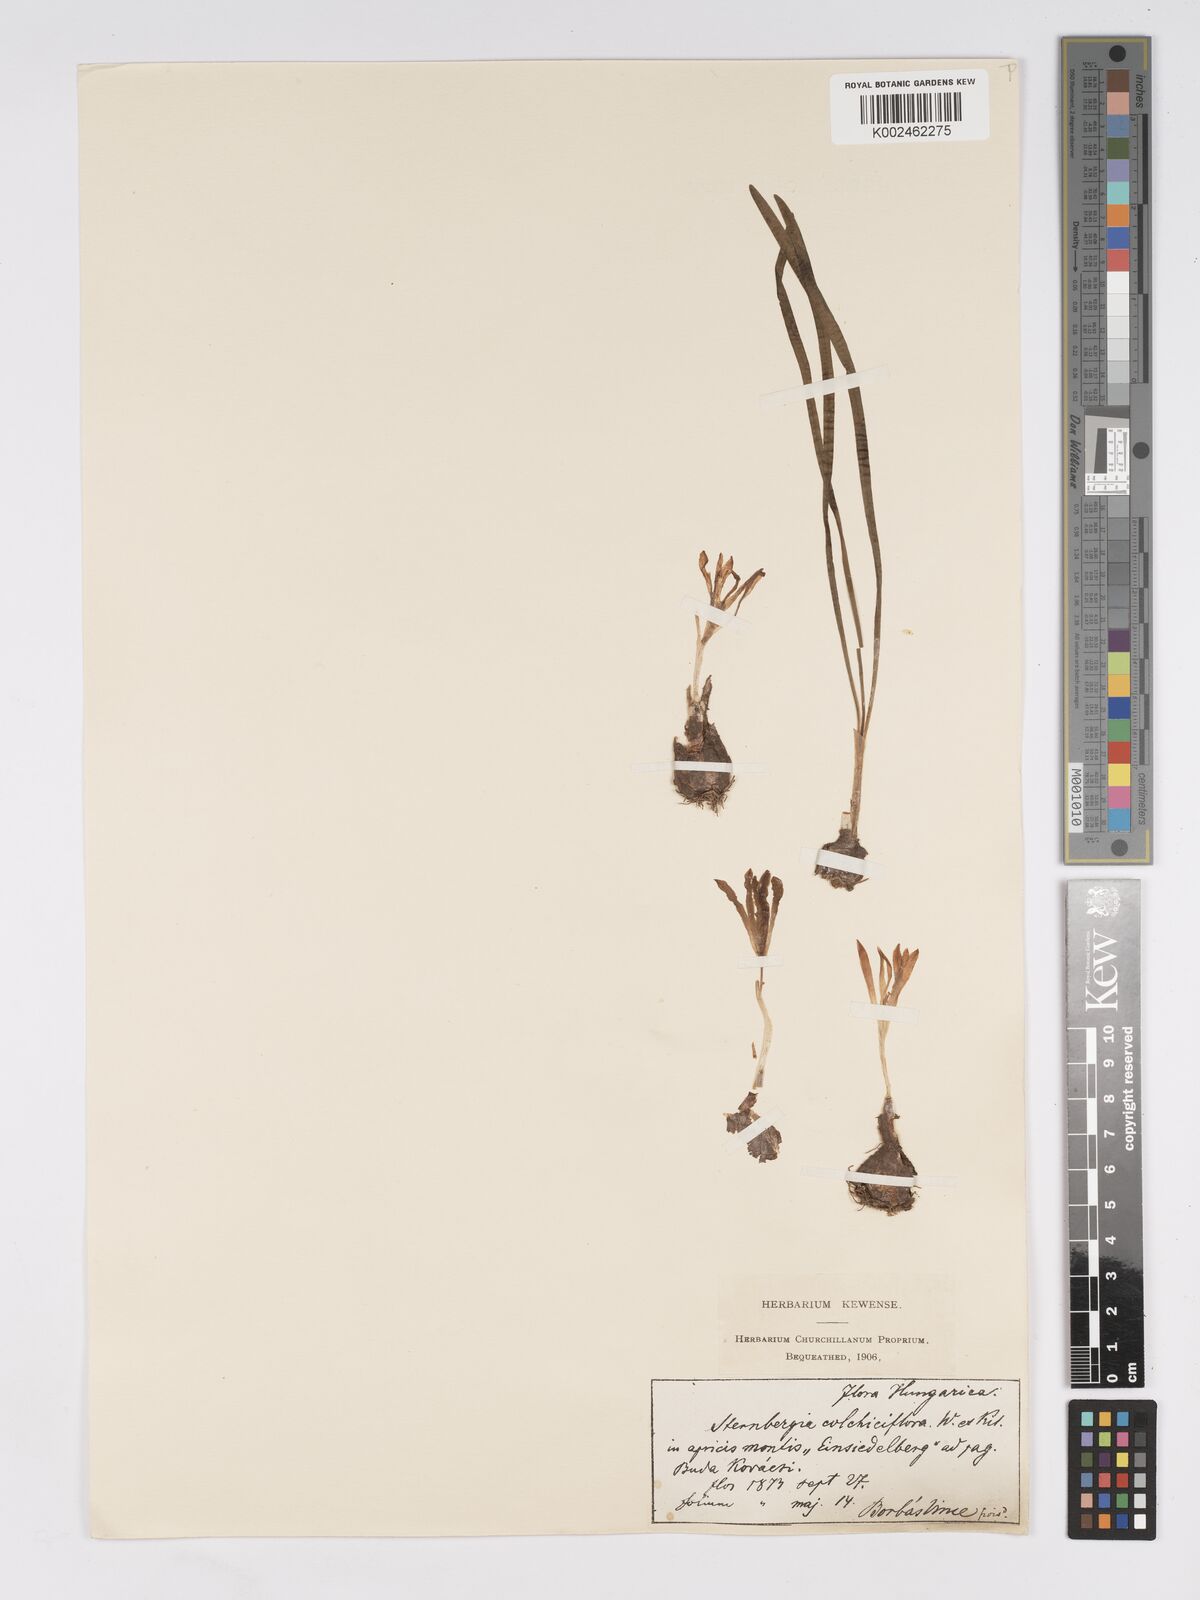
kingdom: Plantae
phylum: Tracheophyta
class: Liliopsida
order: Asparagales
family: Amaryllidaceae
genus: Sternbergia
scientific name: Sternbergia colchiciflora
